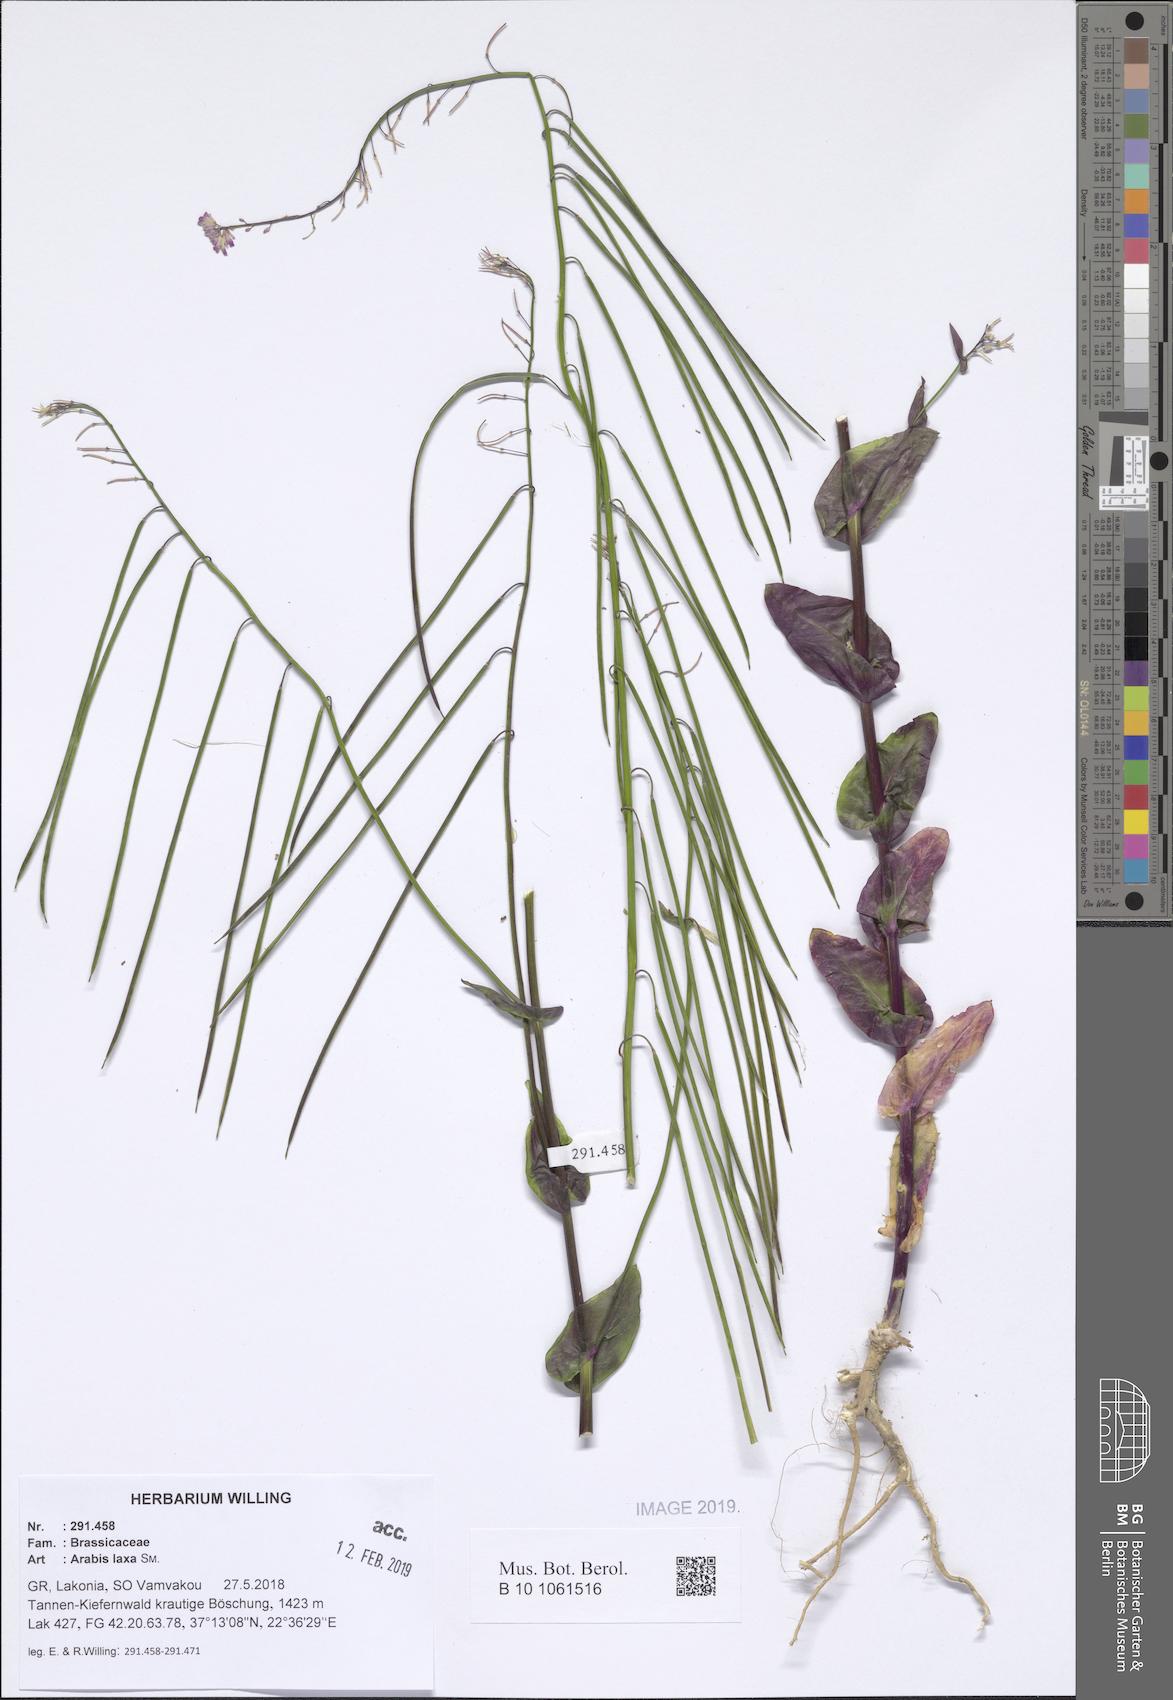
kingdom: Plantae
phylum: Tracheophyta
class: Magnoliopsida
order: Brassicales
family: Brassicaceae
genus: Turritis
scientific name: Turritis laxa
